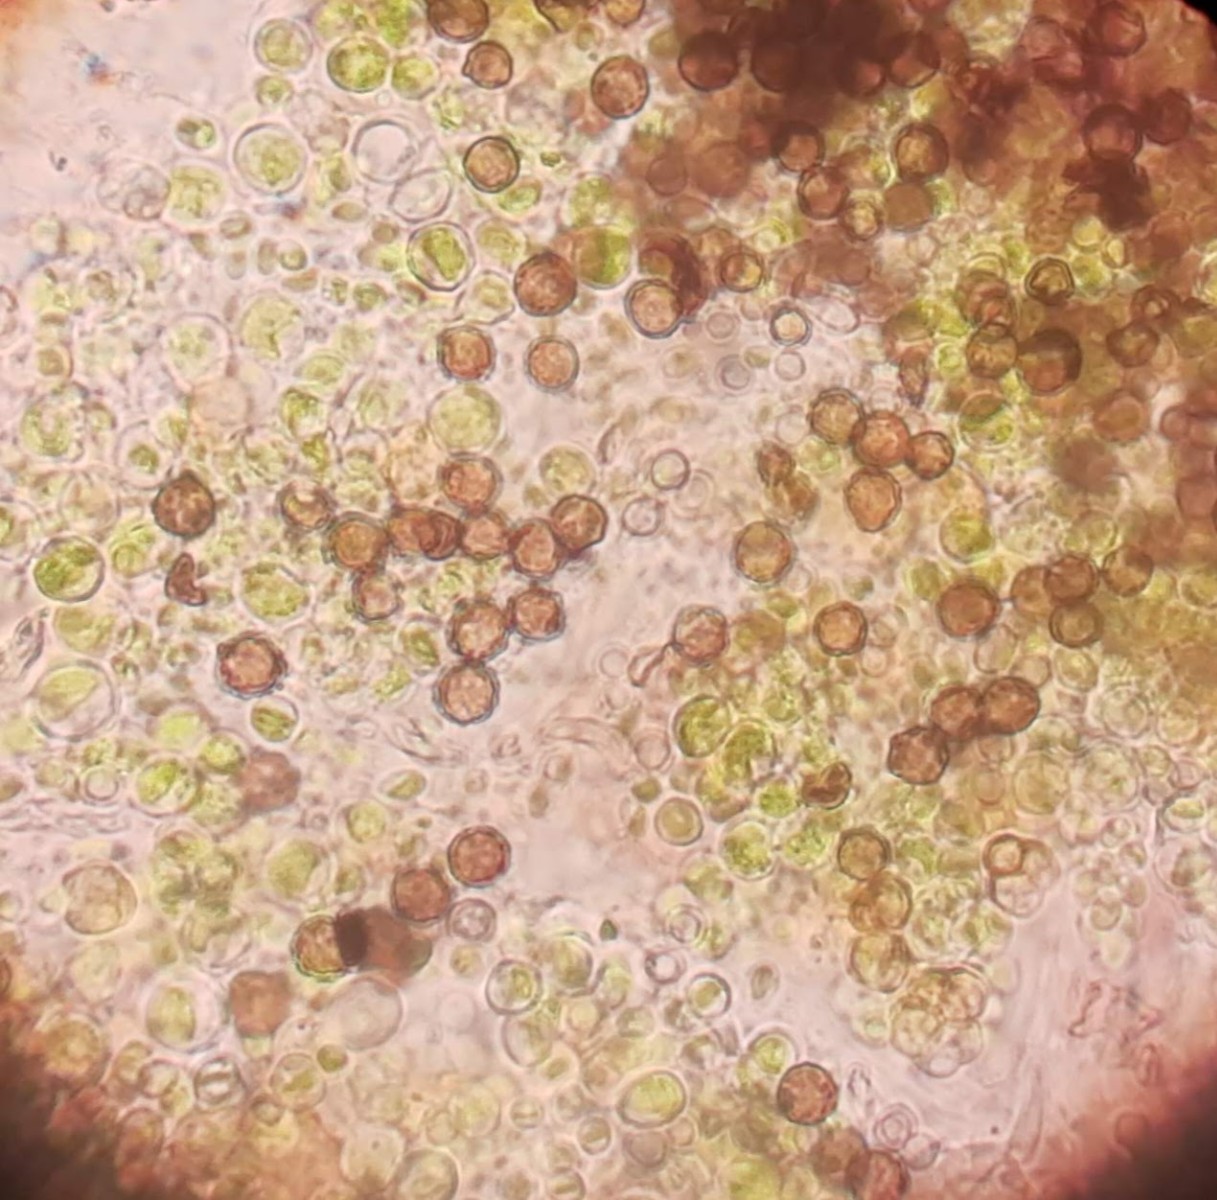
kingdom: Fungi
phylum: Ascomycota
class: Dothideomycetes
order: Mycosphaerellales
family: Teratosphaeriaceae
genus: Xanthoriicola
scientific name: Xanthoriicola physciae
